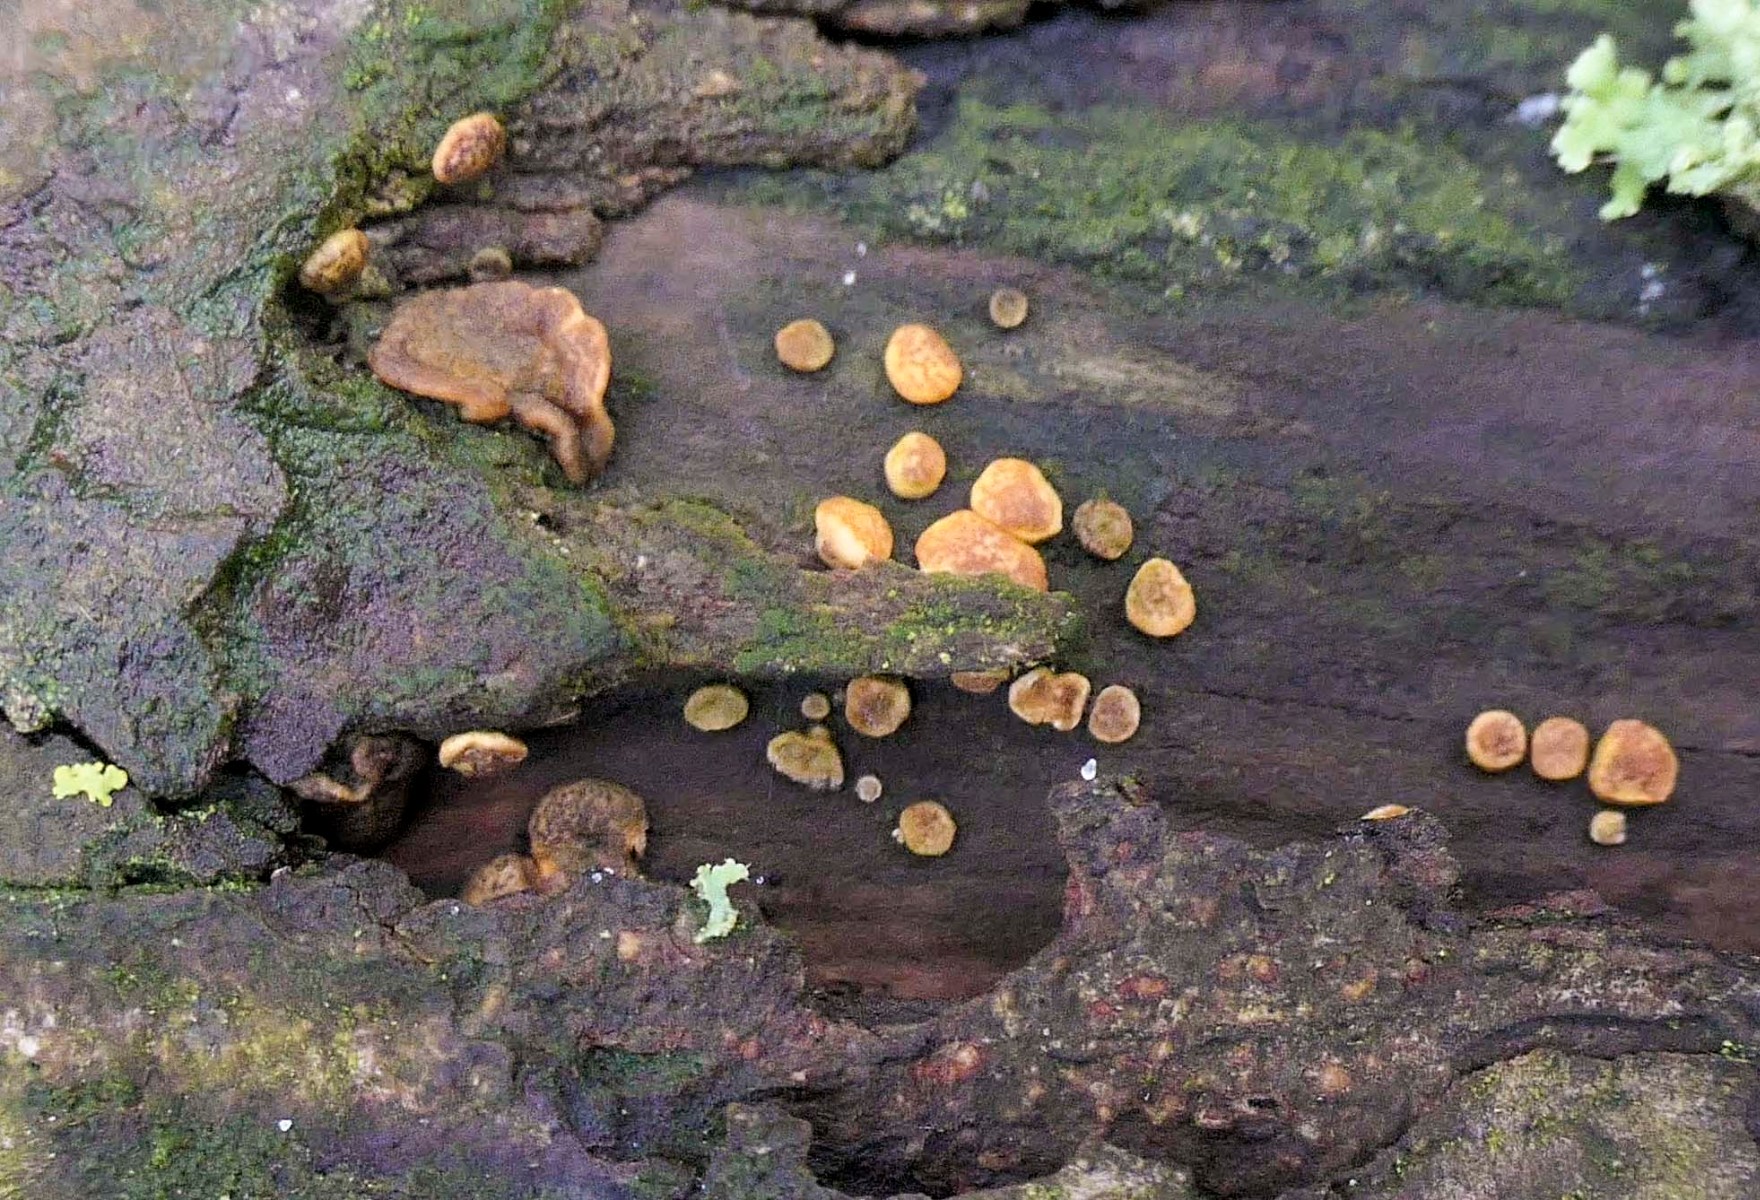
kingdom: Fungi
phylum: Ascomycota
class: Sordariomycetes
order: Hypocreales
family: Hypocreaceae
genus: Trichoderma
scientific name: Trichoderma aureoviride
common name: æggegul kødkerne
